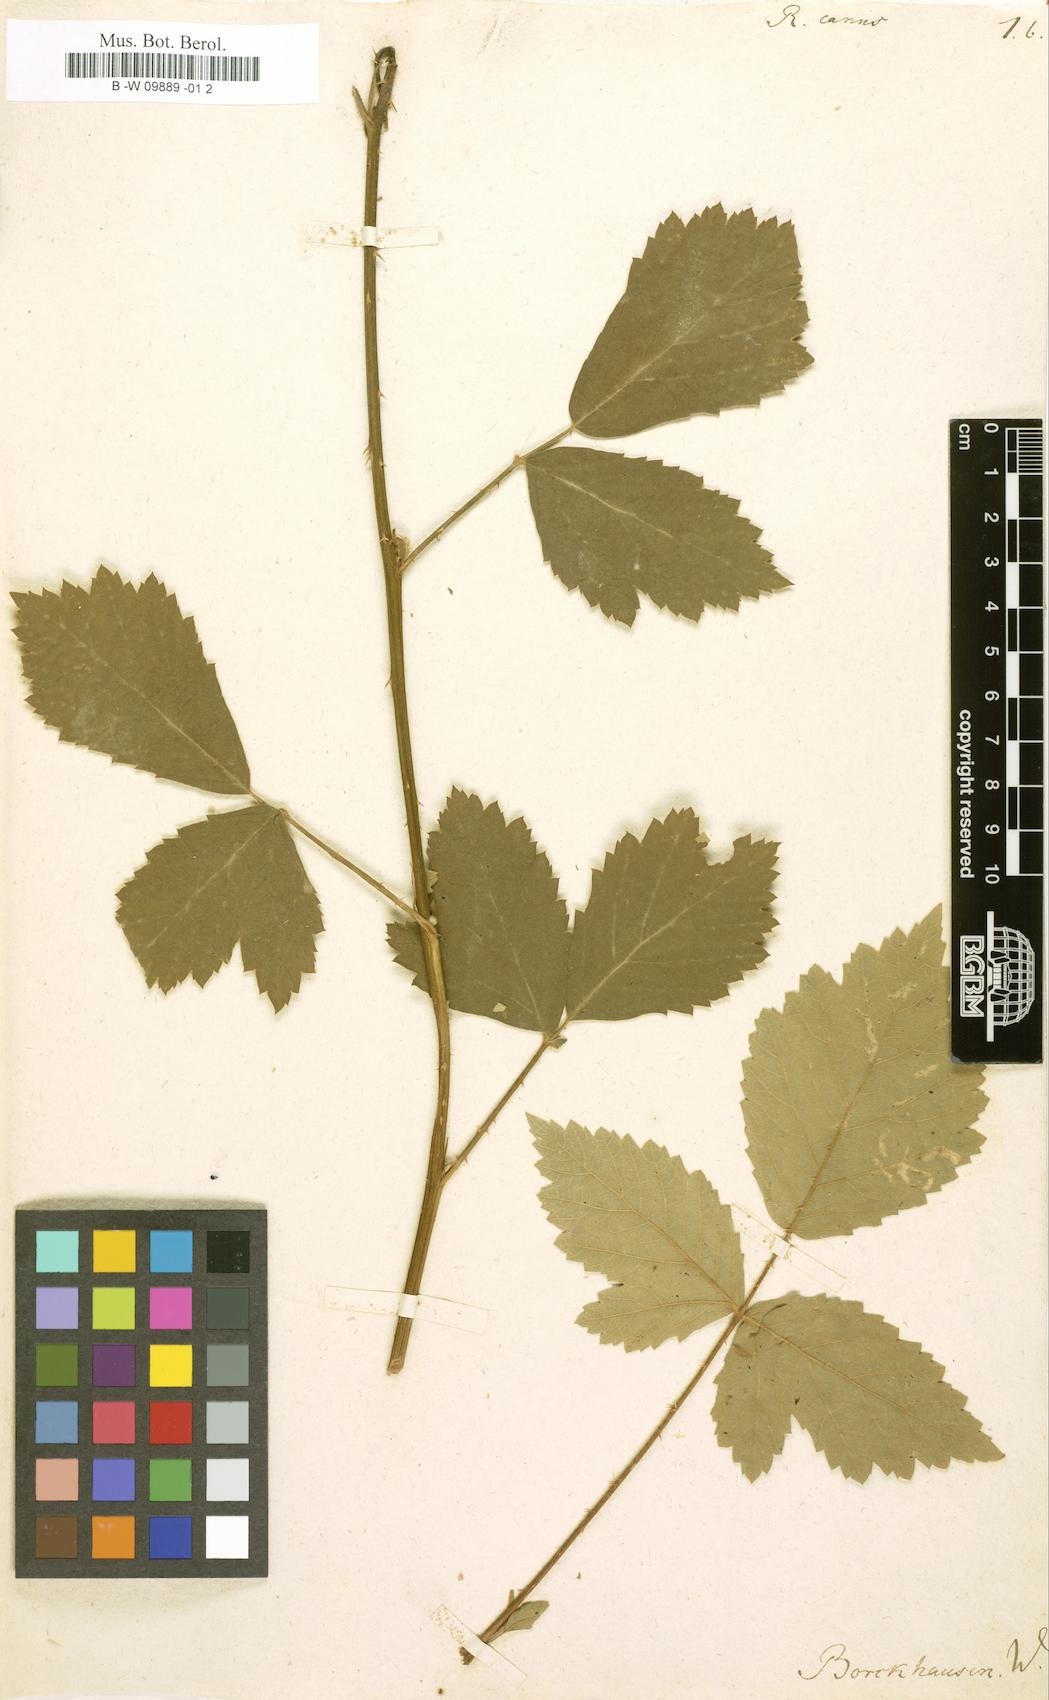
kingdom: Plantae
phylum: Tracheophyta
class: Magnoliopsida
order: Rosales
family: Rosaceae
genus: Rubus
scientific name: Rubus canus
